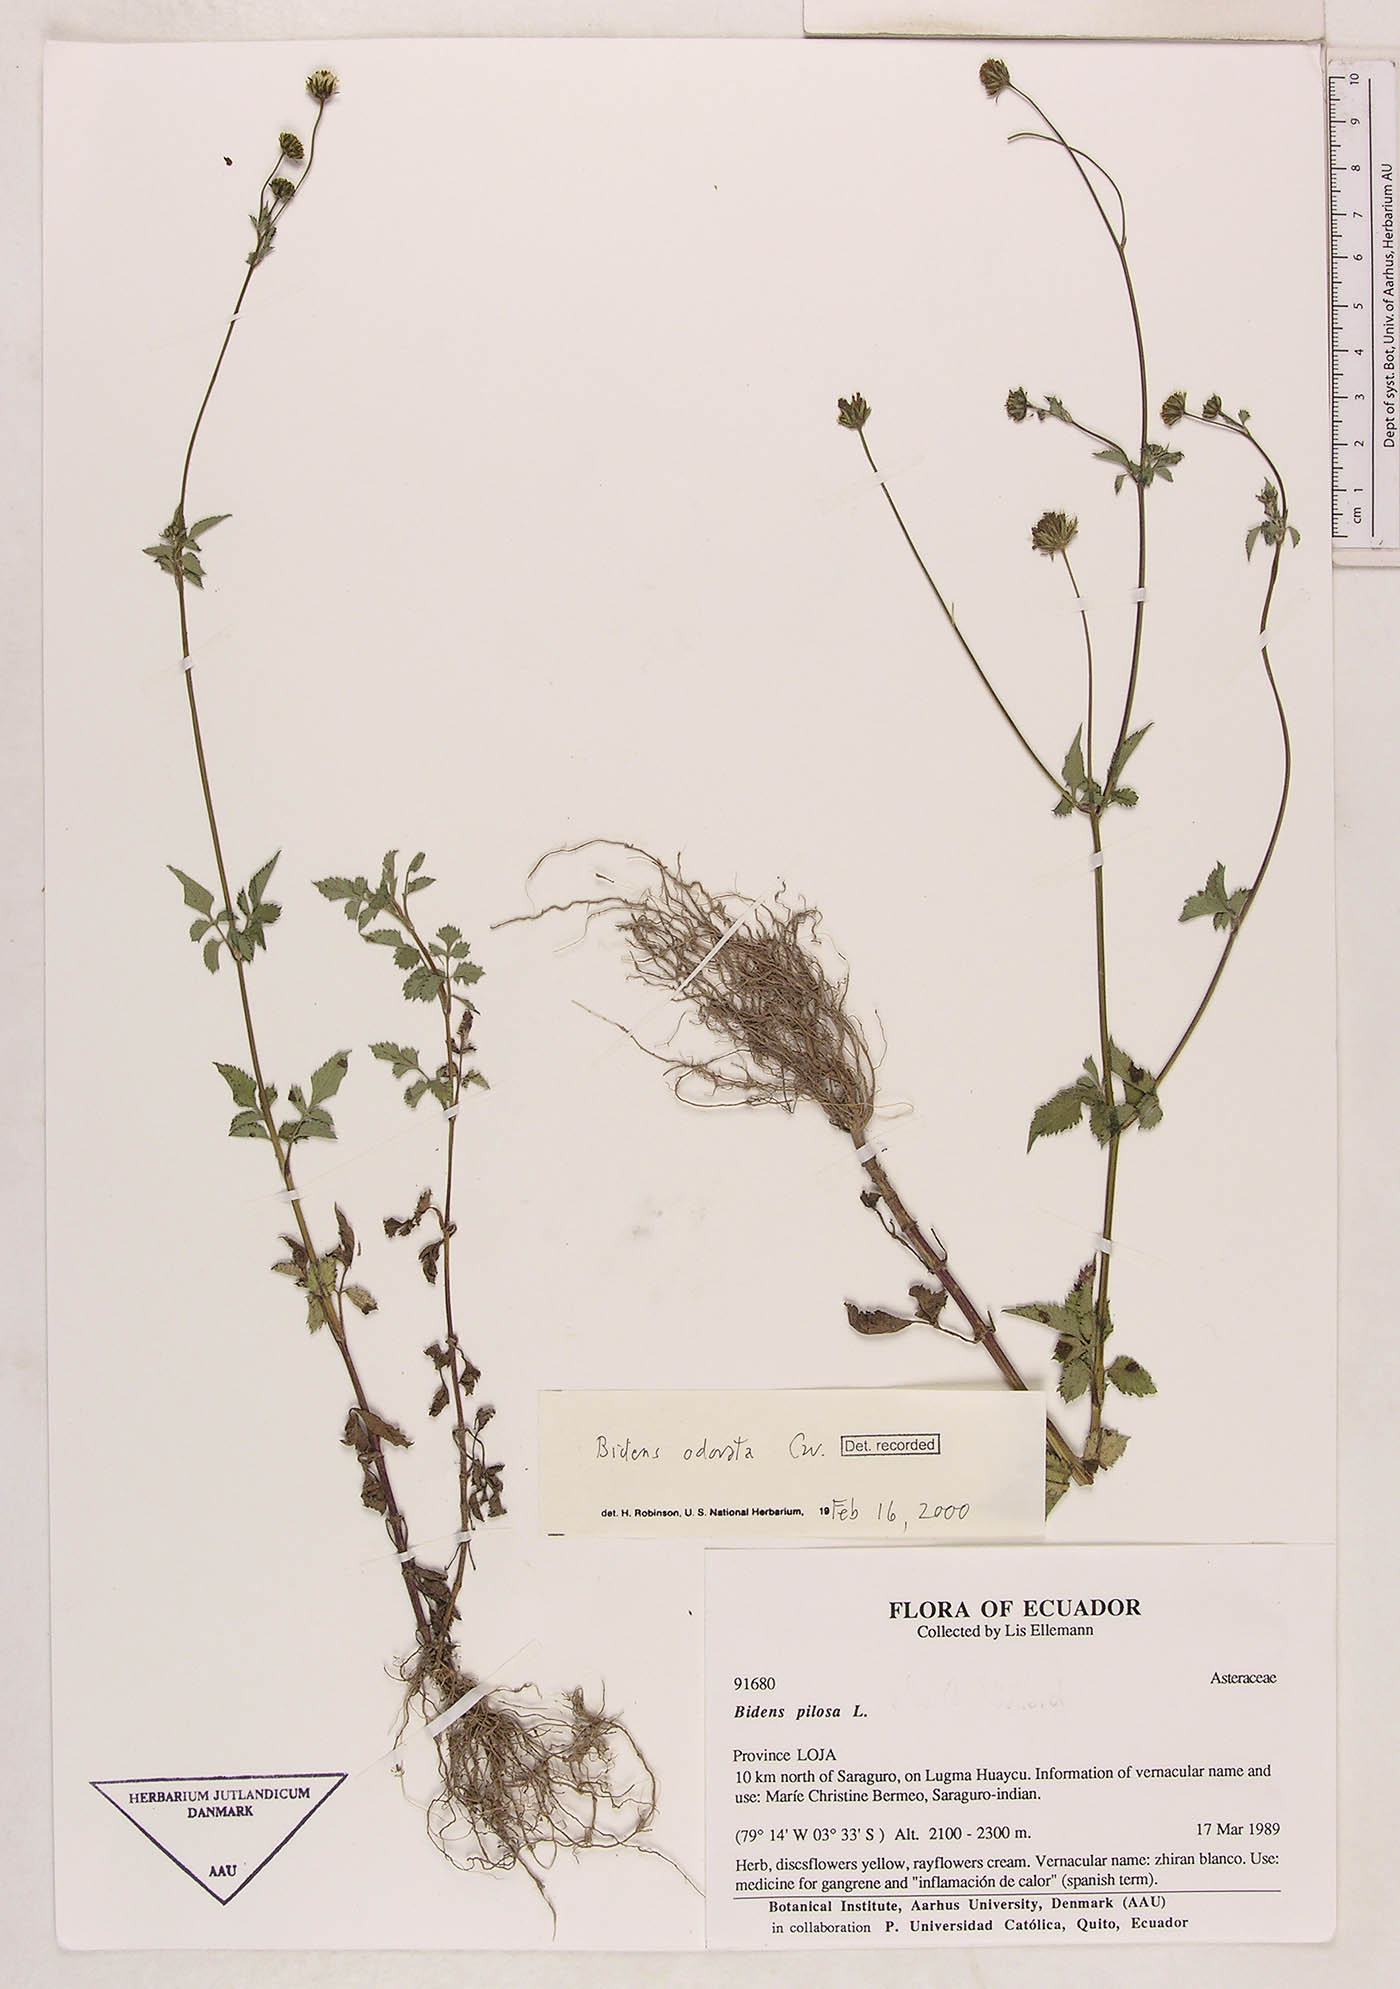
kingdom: Plantae
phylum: Tracheophyta
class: Magnoliopsida
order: Asterales
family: Asteraceae
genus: Bidens
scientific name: Bidens pilosa
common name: Black-jack
